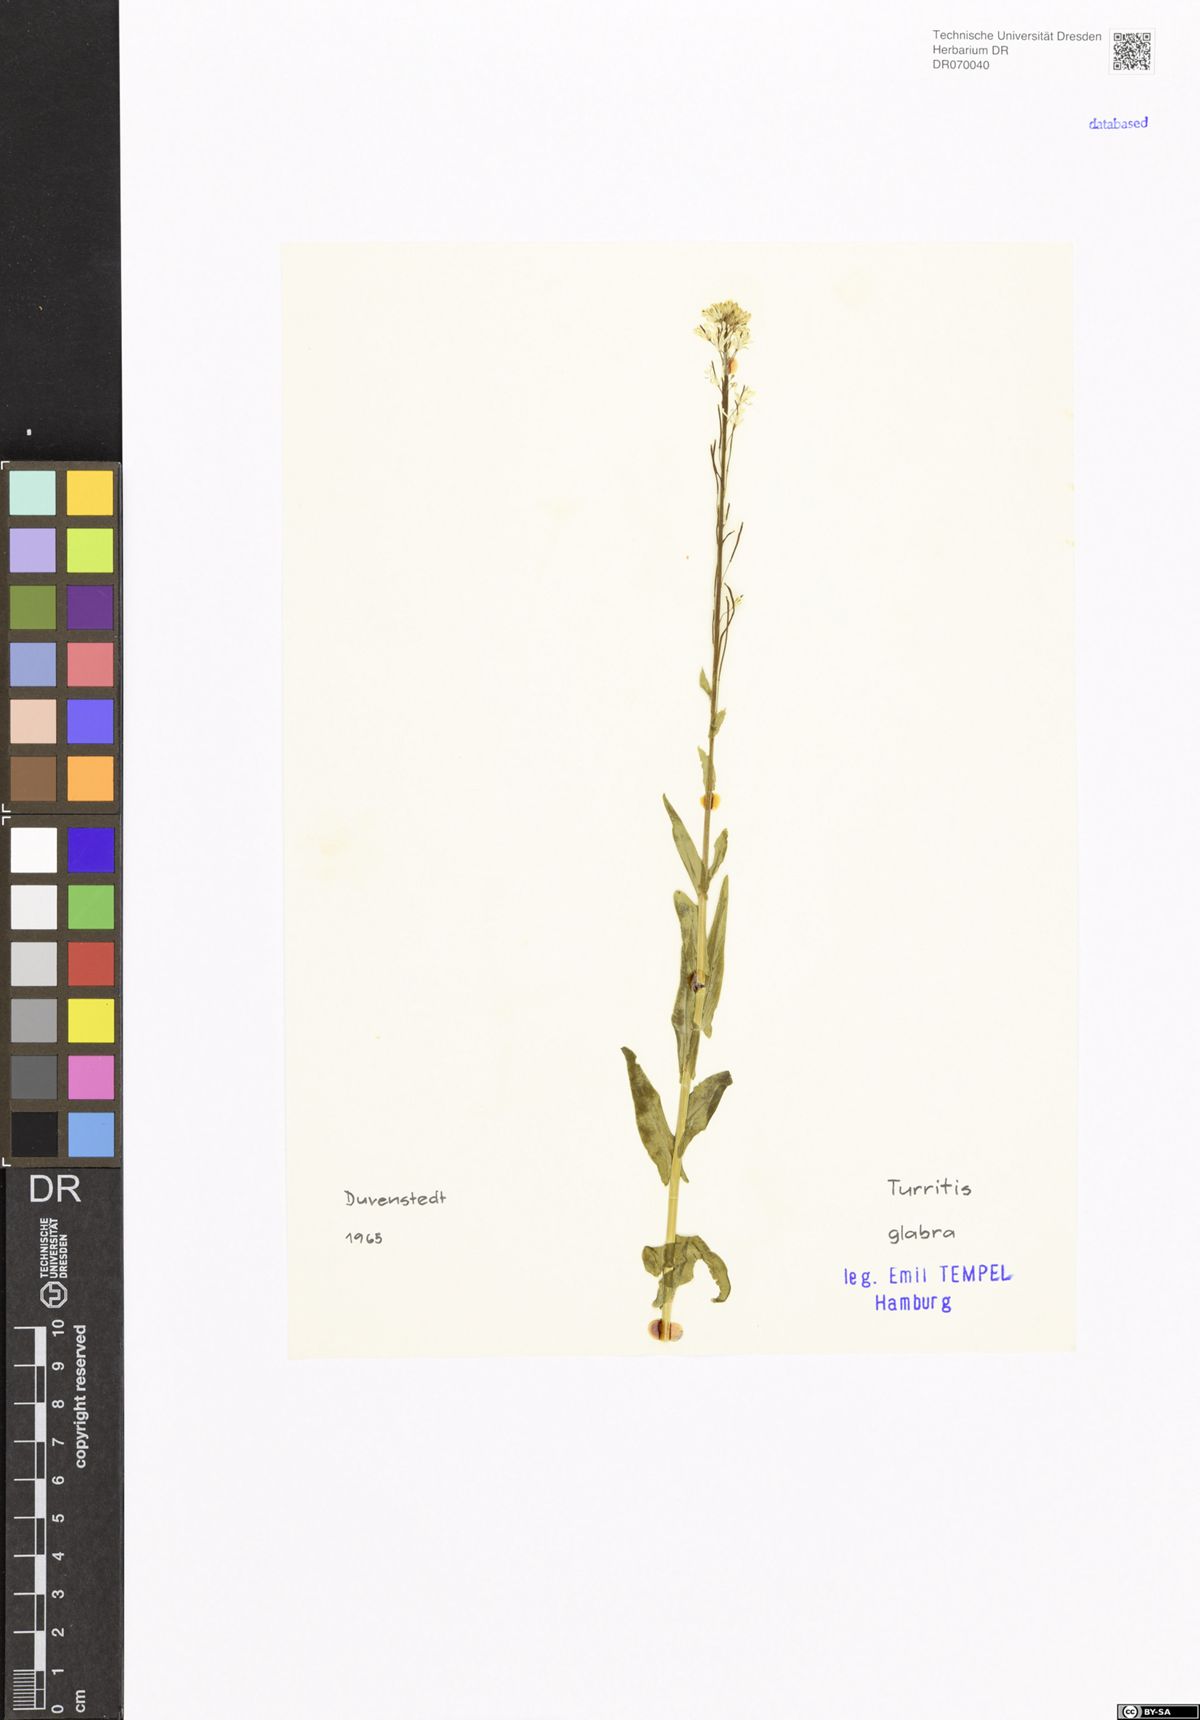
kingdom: Plantae
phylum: Tracheophyta
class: Magnoliopsida
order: Brassicales
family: Brassicaceae
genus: Turritis
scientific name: Turritis glabra
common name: Tower rockcress
